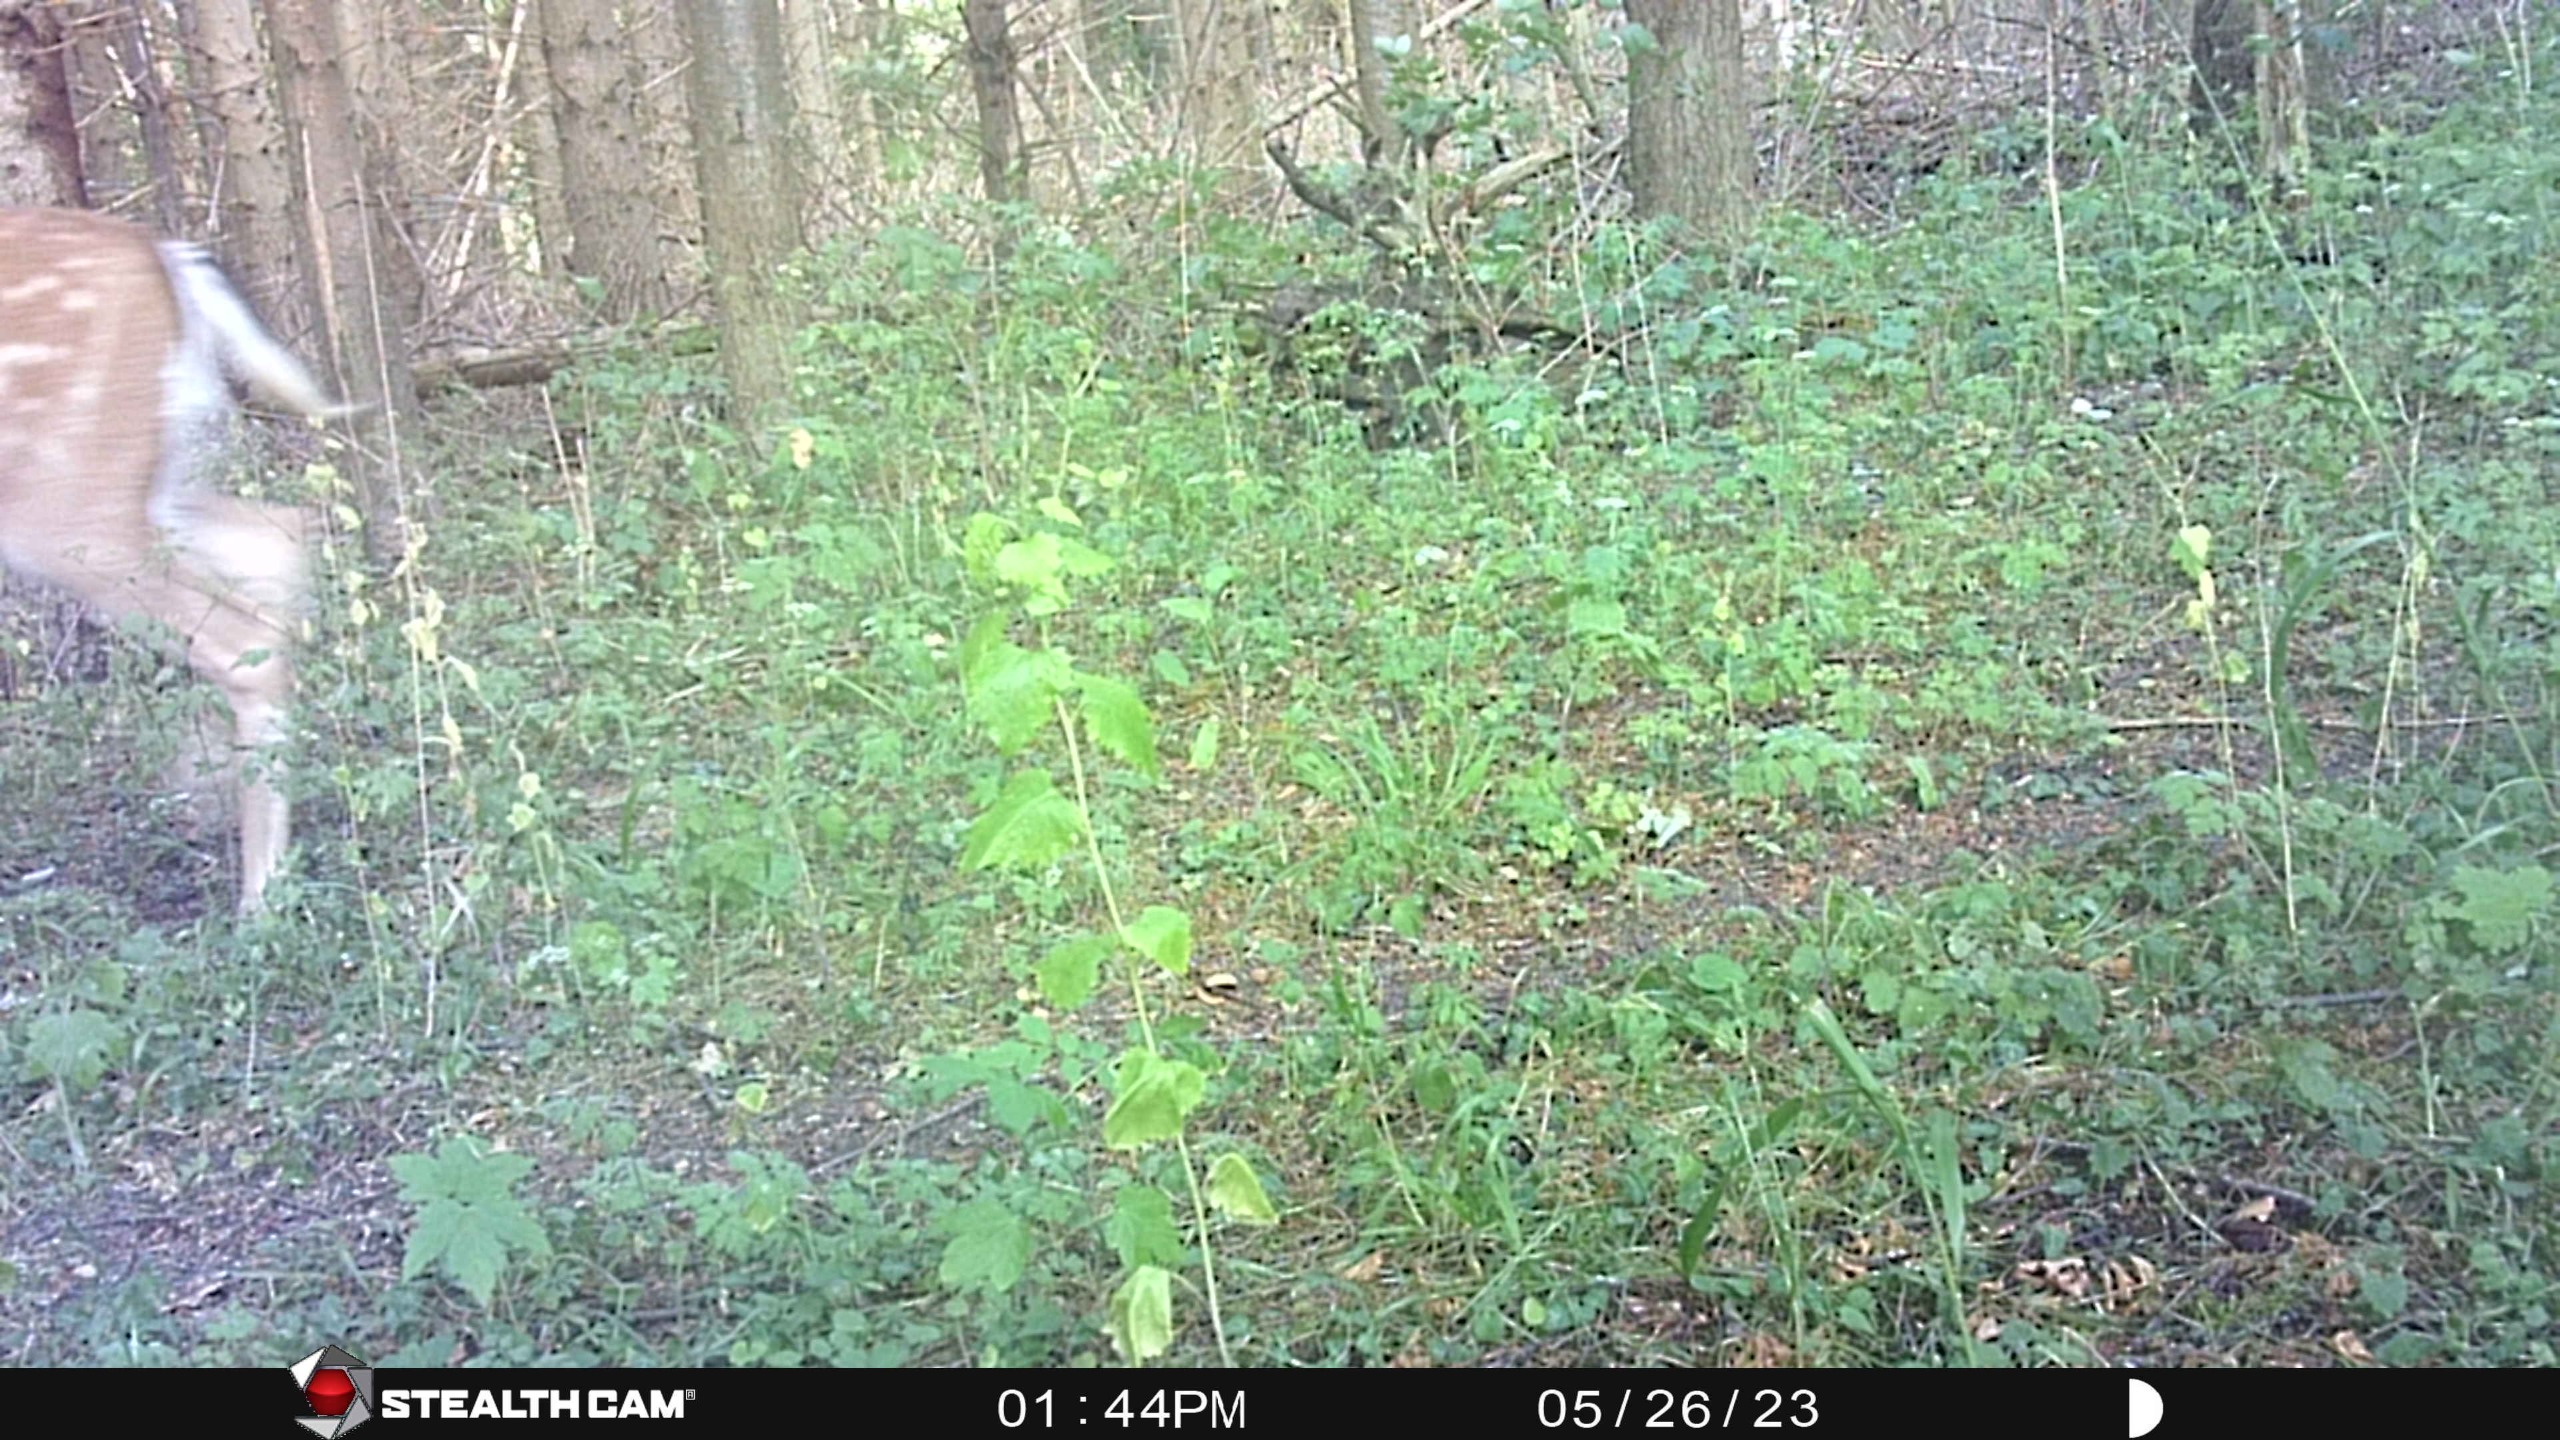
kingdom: Animalia
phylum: Chordata
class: Mammalia
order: Artiodactyla
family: Cervidae
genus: Dama
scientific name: Dama dama
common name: Dådyr
